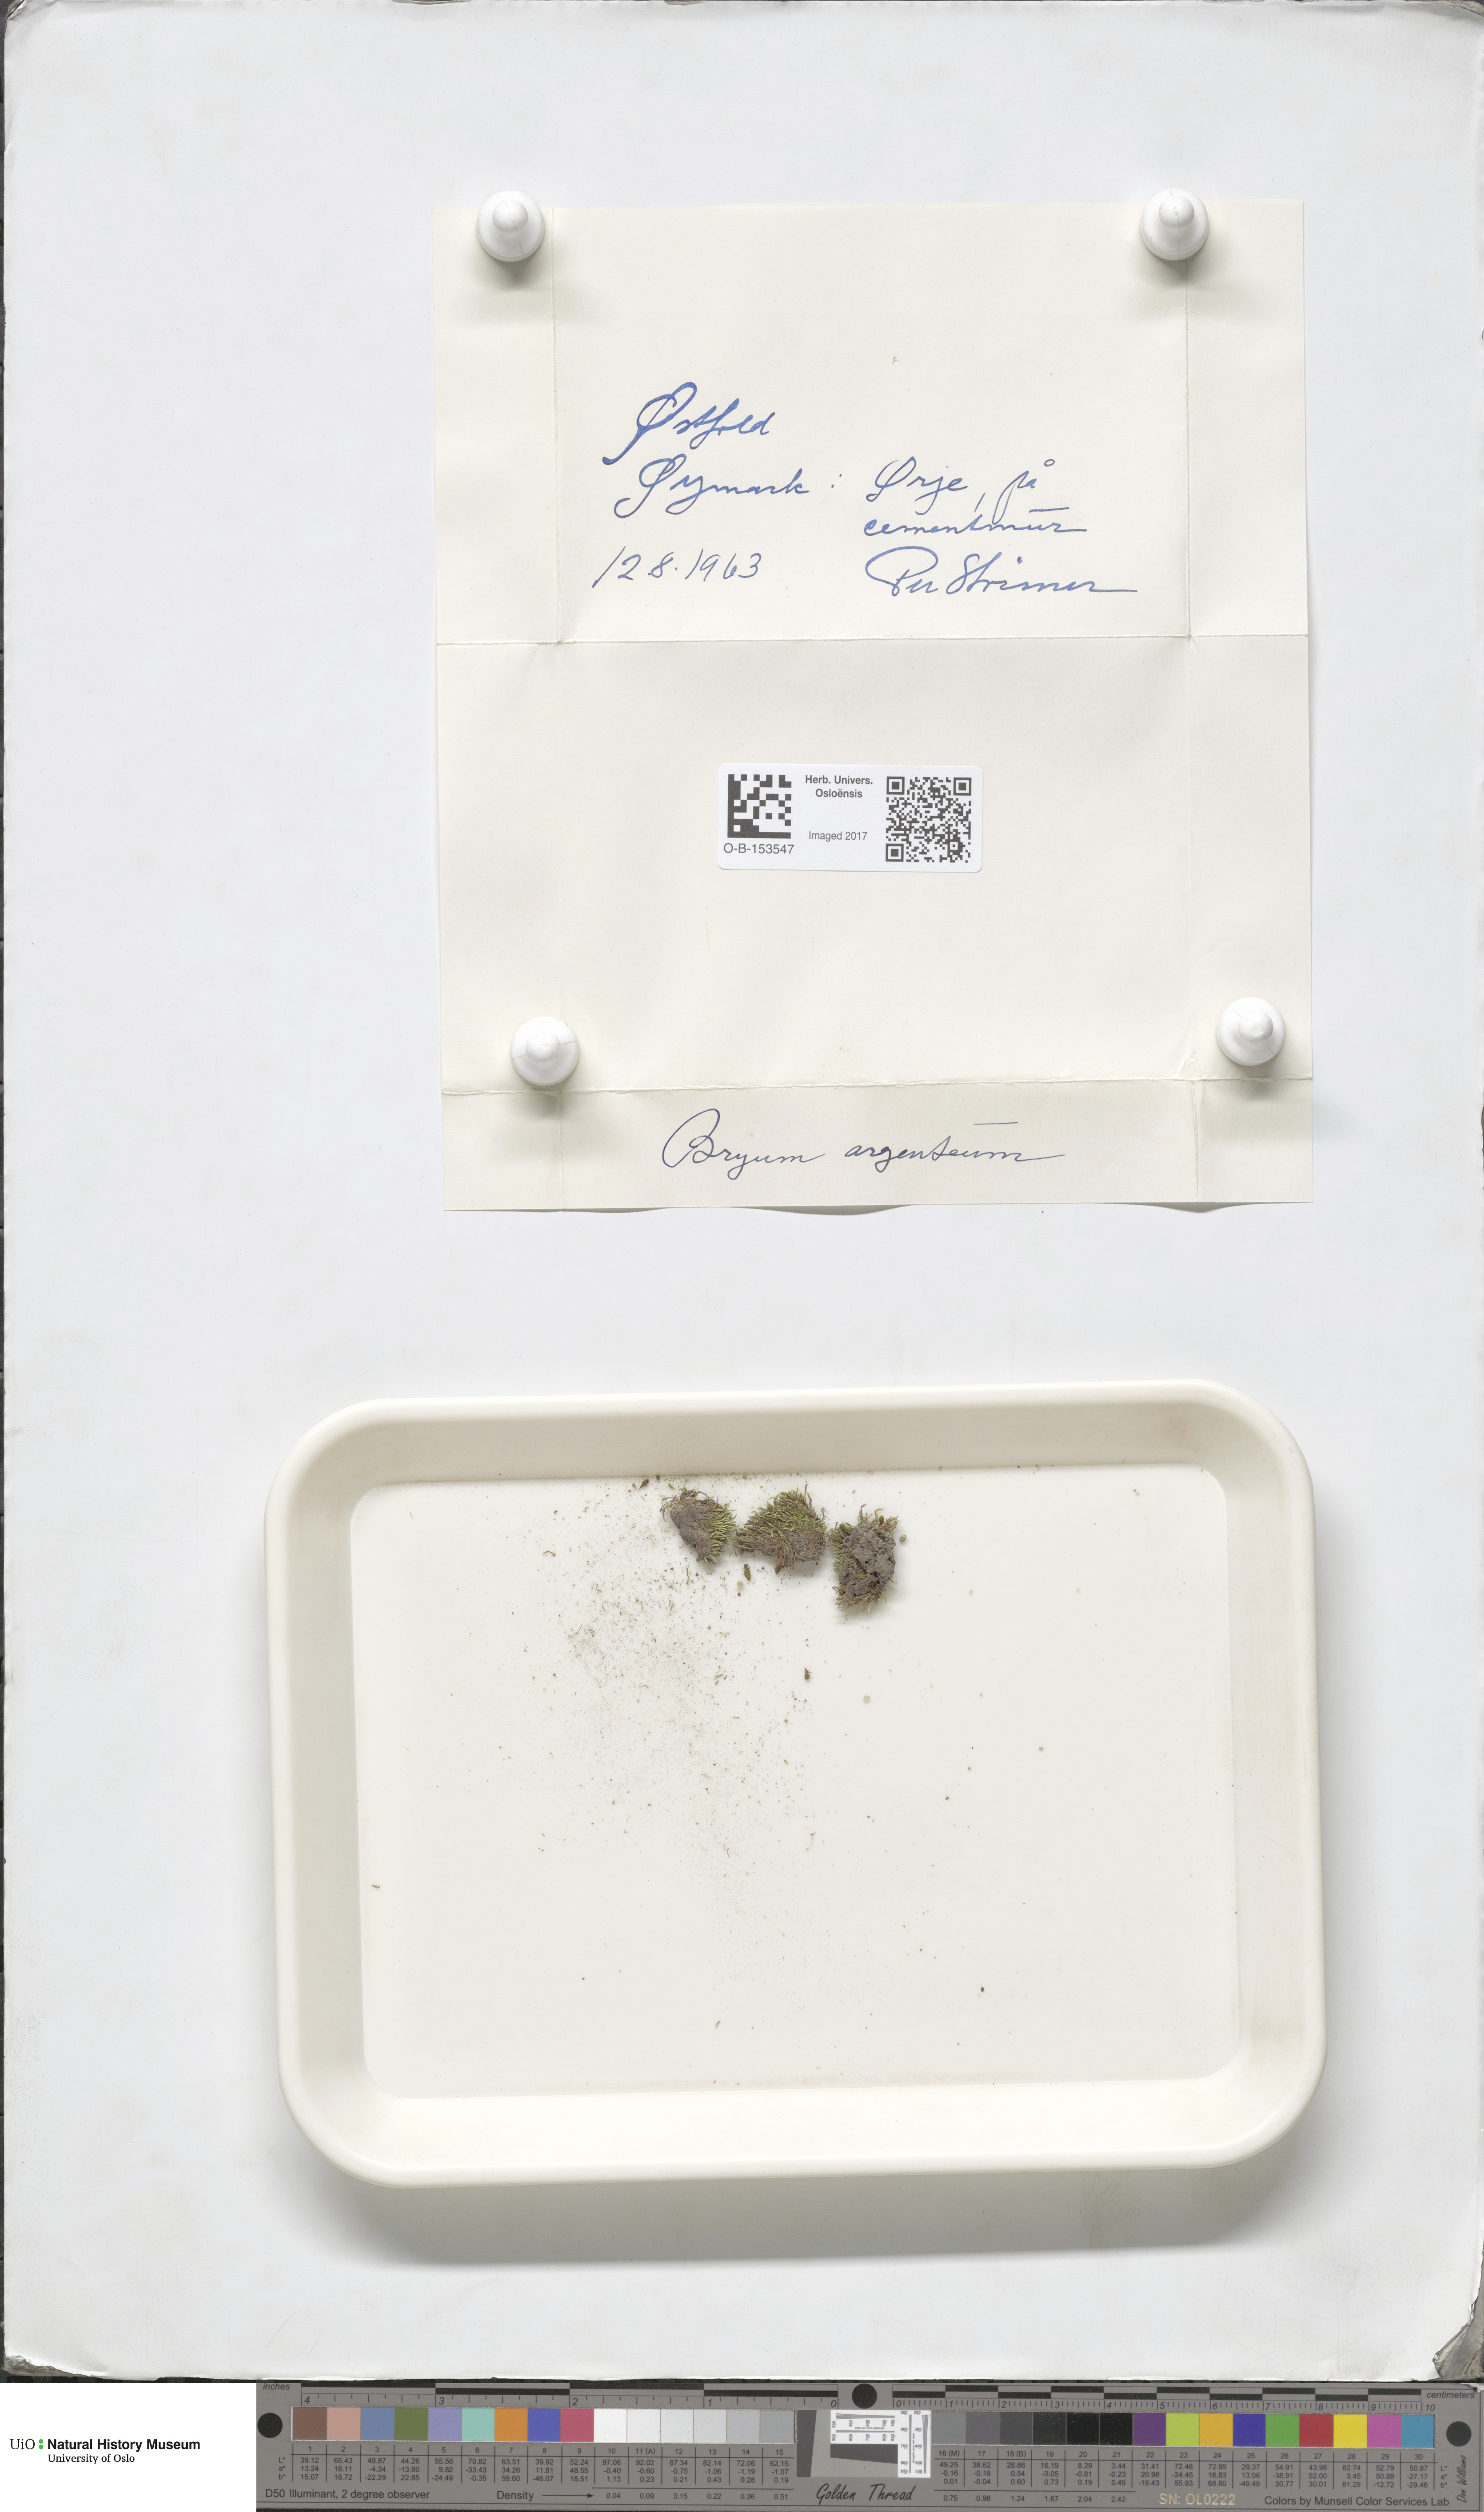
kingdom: Plantae
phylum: Bryophyta
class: Bryopsida
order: Bryales
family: Bryaceae
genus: Bryum
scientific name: Bryum argenteum
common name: Silver-moss
